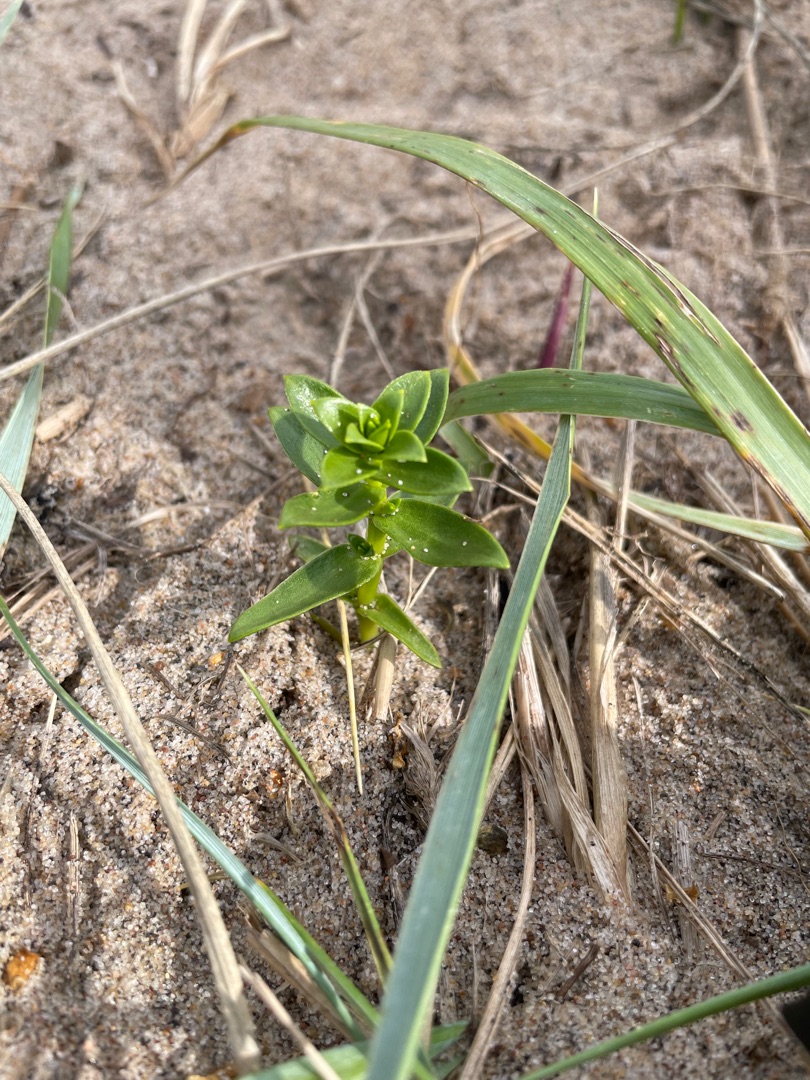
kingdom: Plantae
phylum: Tracheophyta
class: Magnoliopsida
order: Caryophyllales
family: Caryophyllaceae
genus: Honckenya
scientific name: Honckenya peploides
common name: Strandarve
